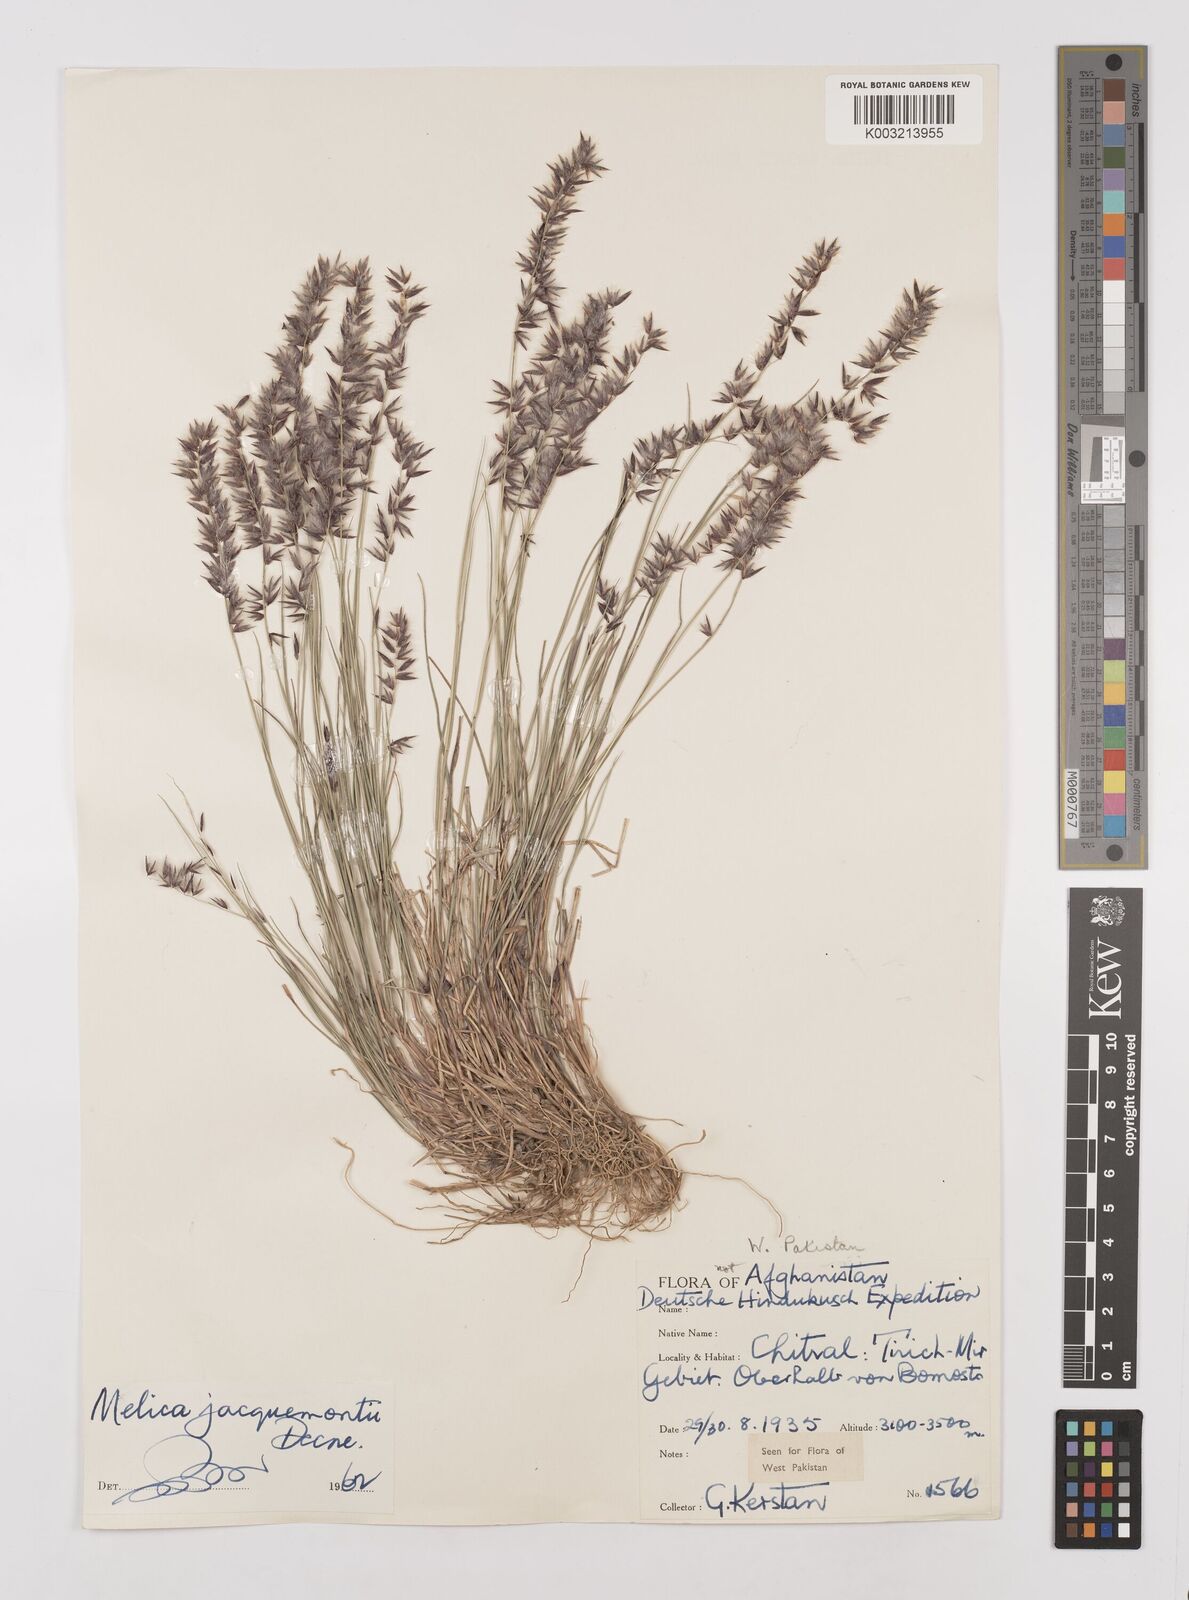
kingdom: Plantae
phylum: Tracheophyta
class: Liliopsida
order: Poales
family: Poaceae
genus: Melica
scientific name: Melica persica
